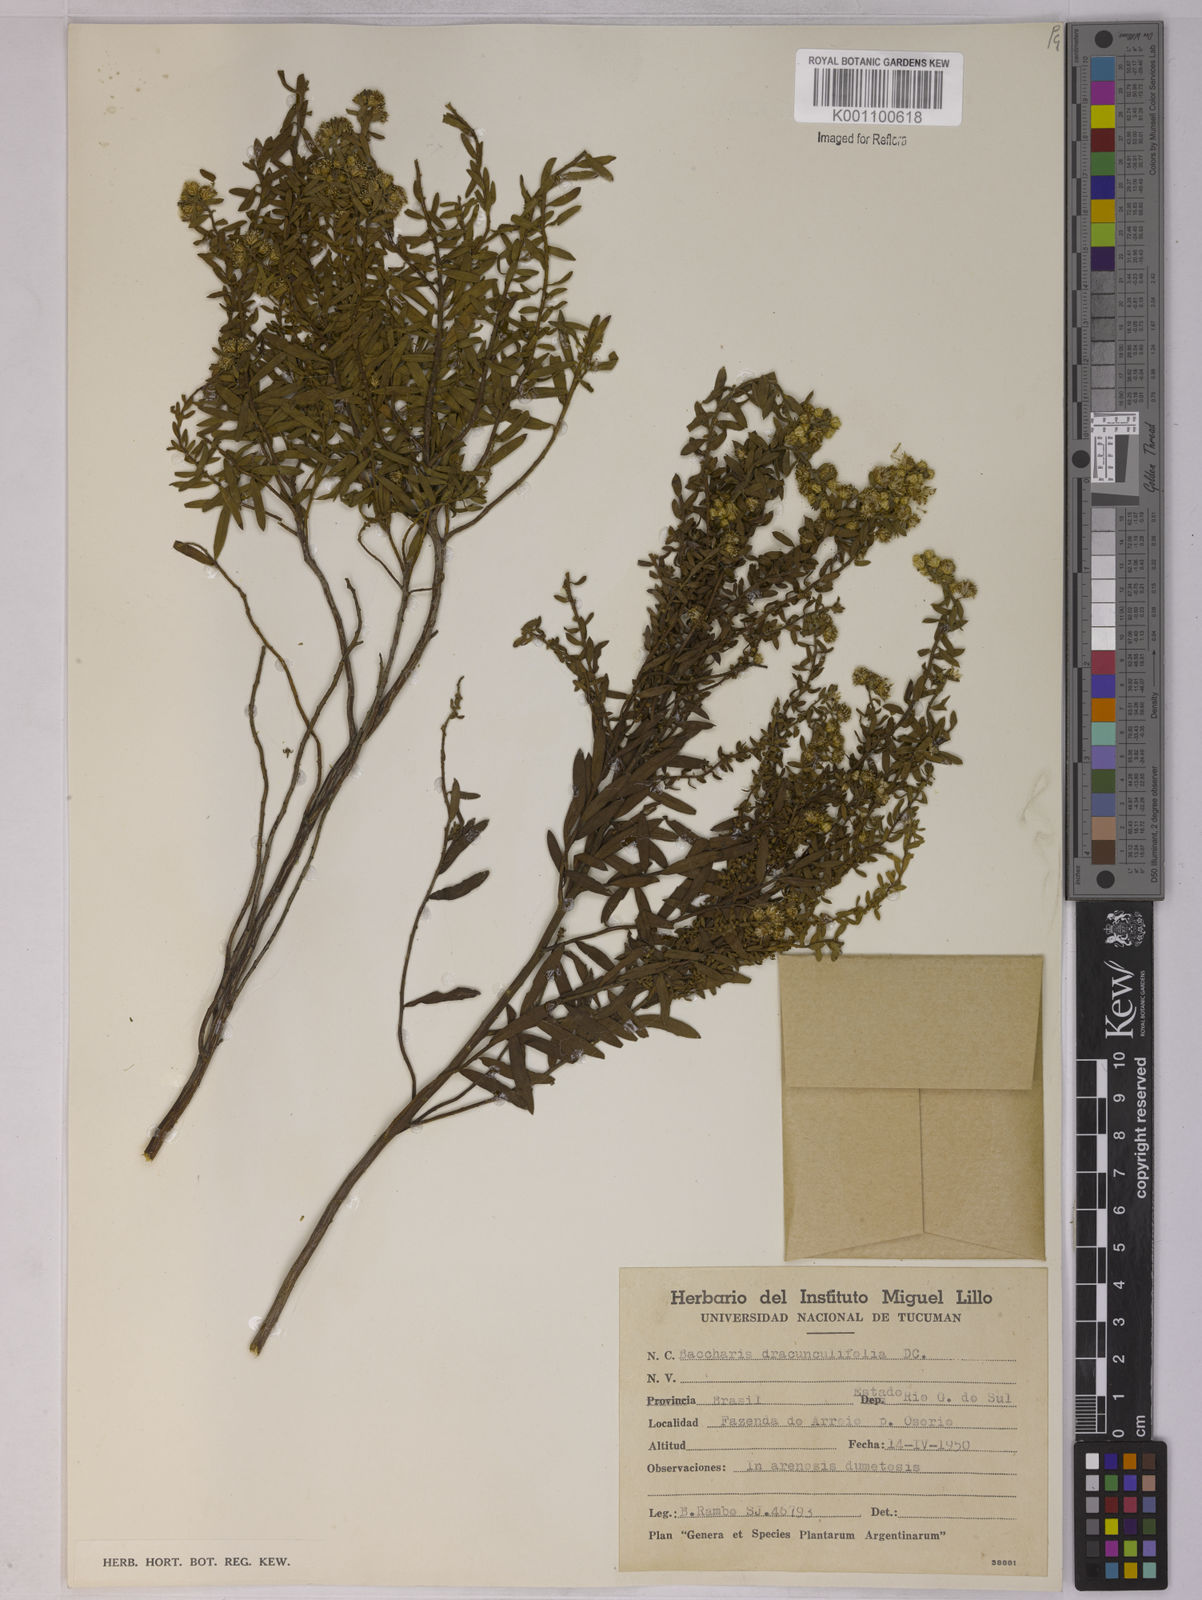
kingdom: Plantae
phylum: Tracheophyta
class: Magnoliopsida
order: Asterales
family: Asteraceae
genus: Baccharis
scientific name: Baccharis dracunculifolia
